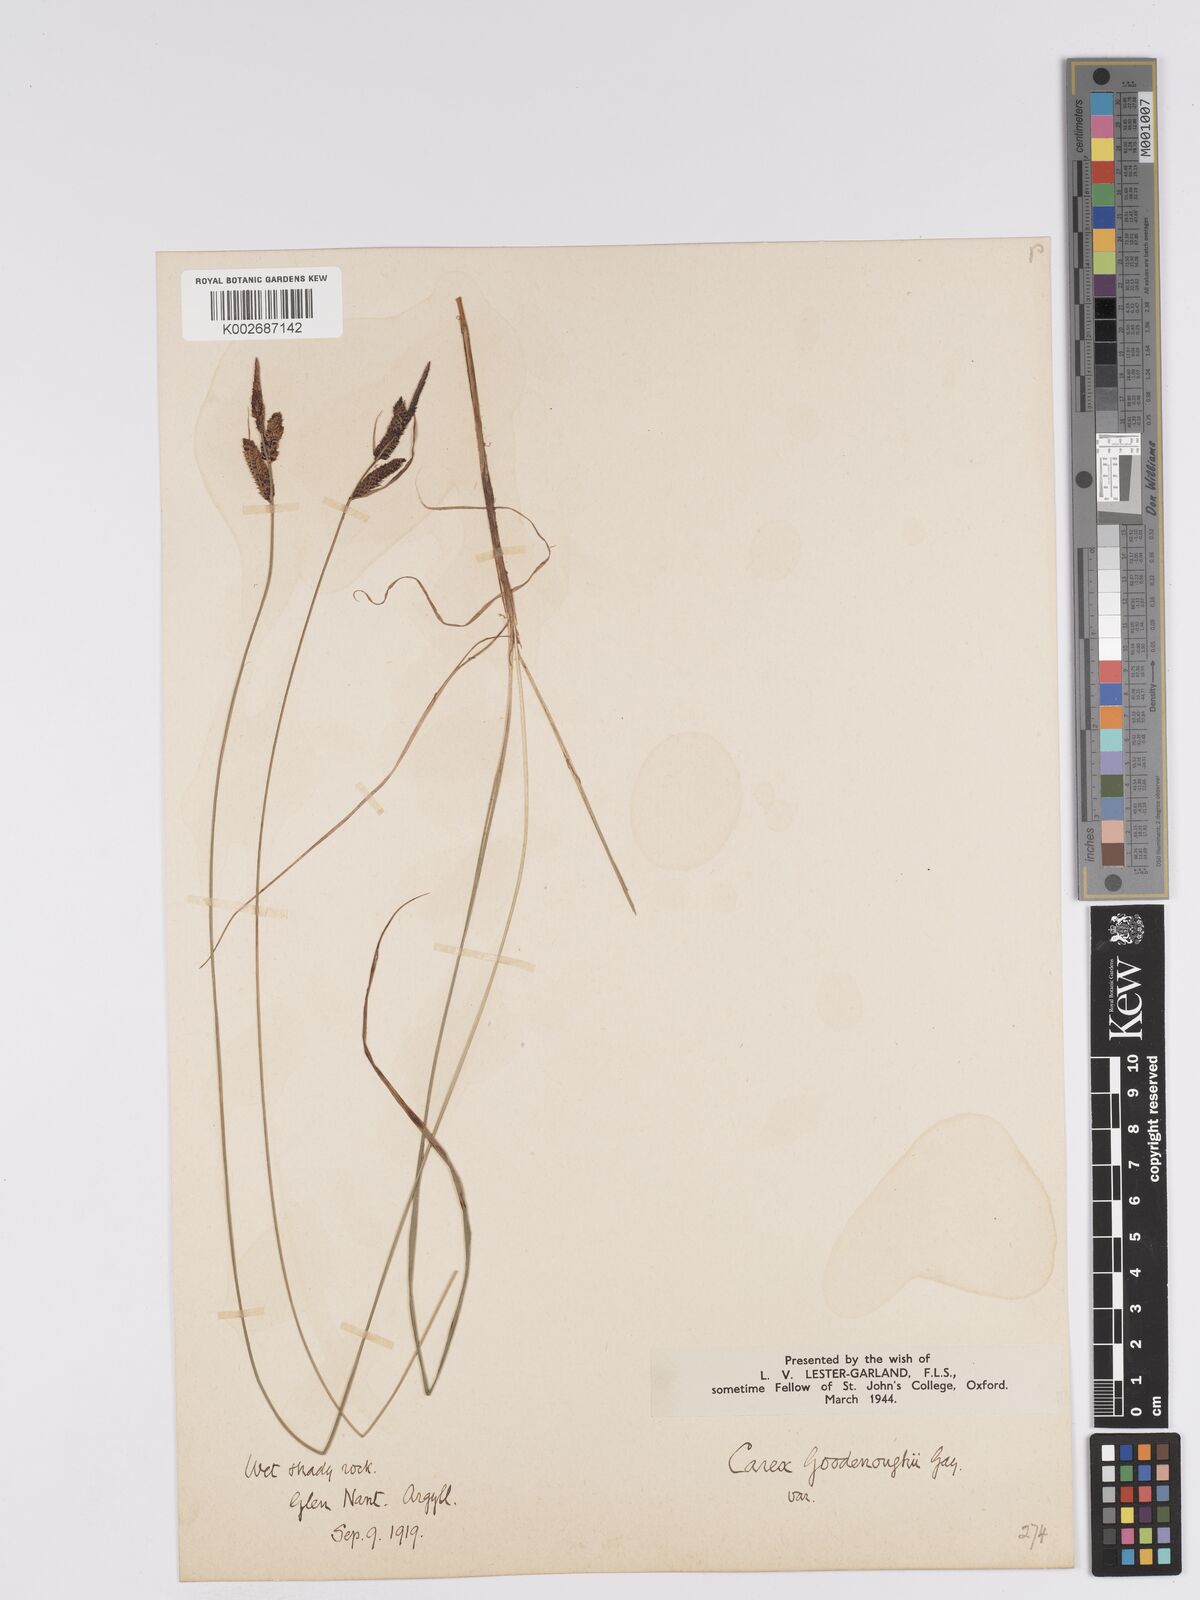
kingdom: Plantae
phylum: Tracheophyta
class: Liliopsida
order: Poales
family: Cyperaceae
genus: Carex
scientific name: Carex nigra
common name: Common sedge
